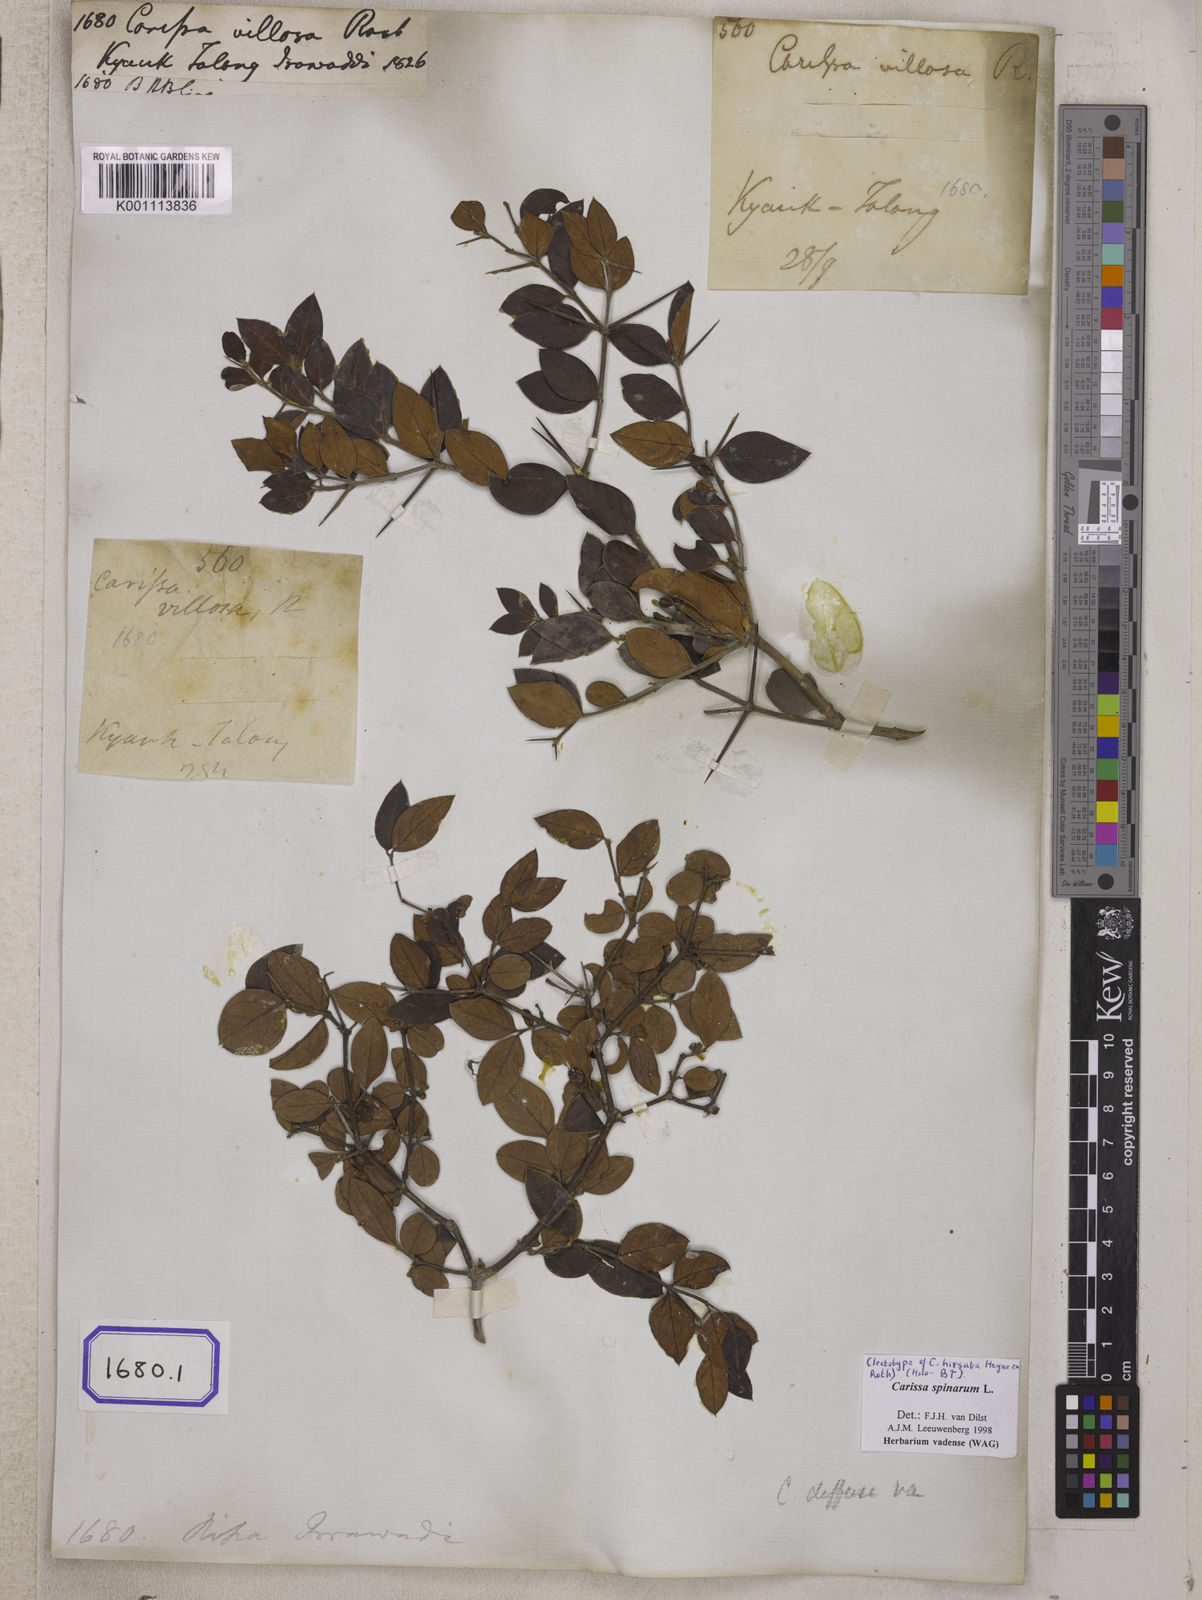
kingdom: Plantae
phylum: Tracheophyta
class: Magnoliopsida
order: Gentianales
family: Apocynaceae
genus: Carissa
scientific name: Carissa spinarum
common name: Egyptian carissa
